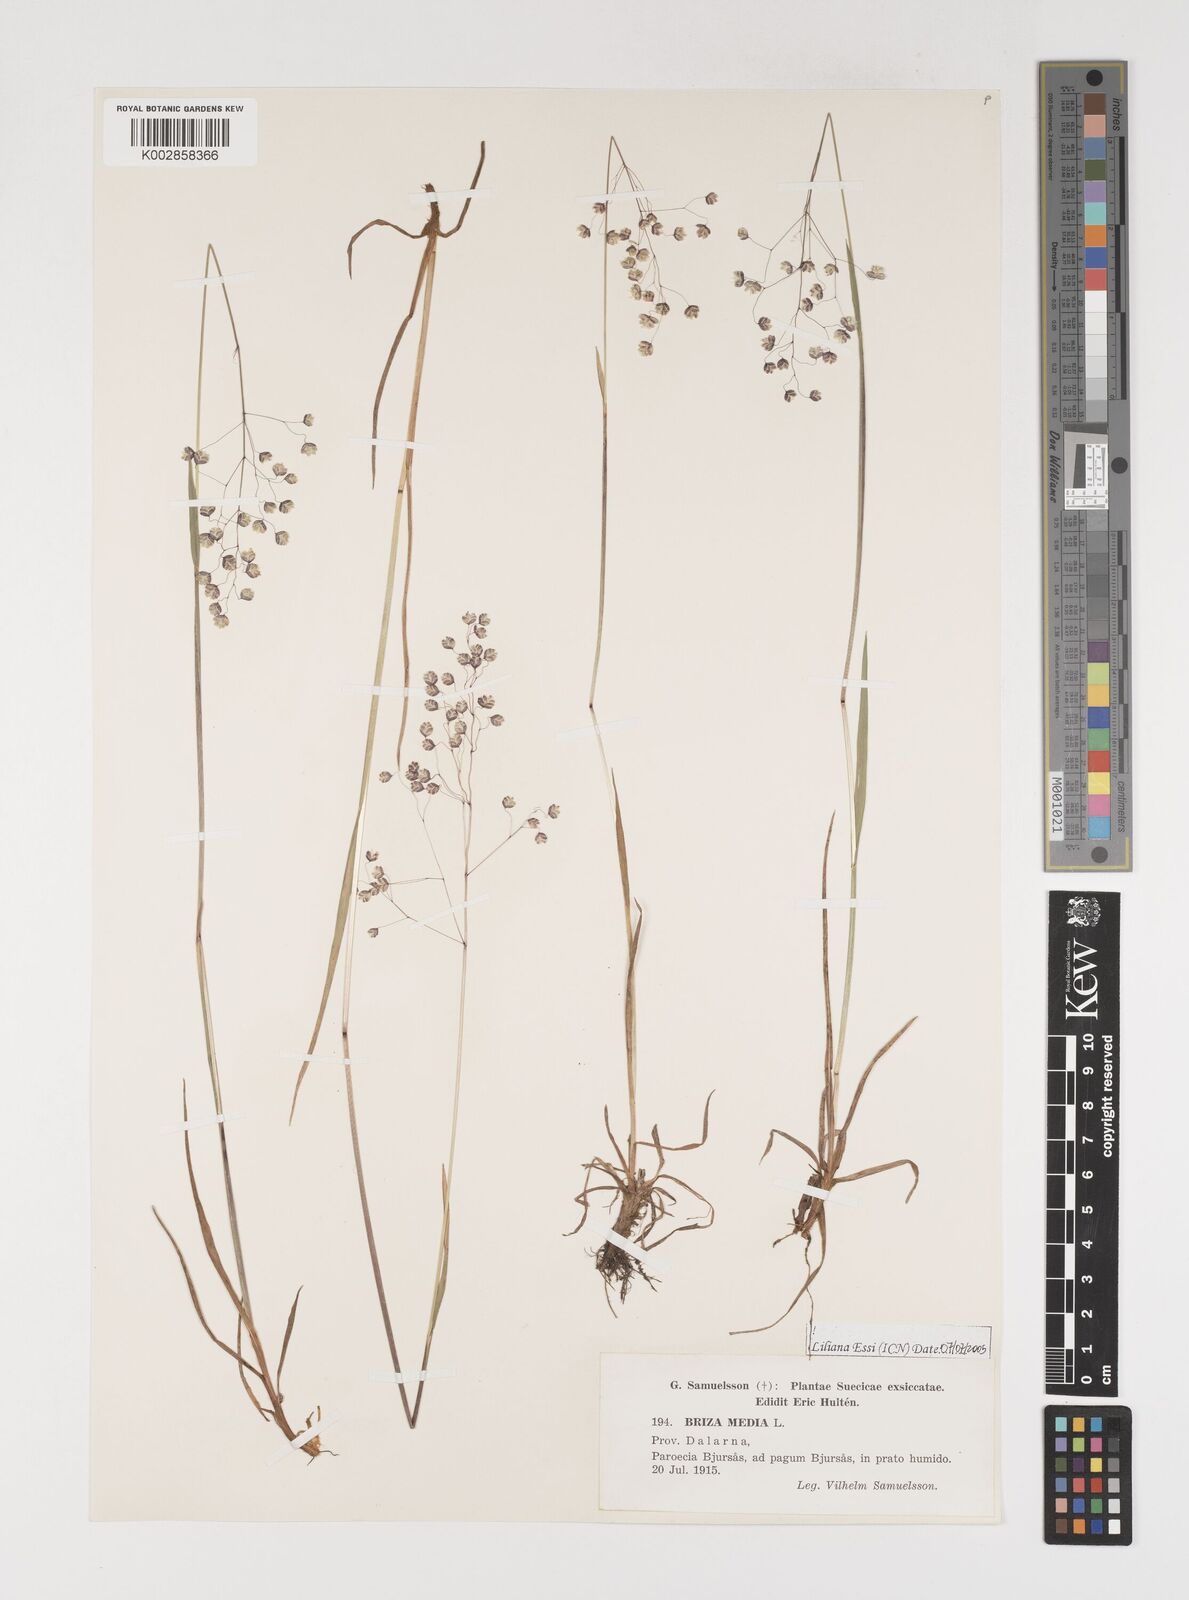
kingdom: Plantae
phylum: Tracheophyta
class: Liliopsida
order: Poales
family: Poaceae
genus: Briza
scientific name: Briza media
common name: Quaking grass
